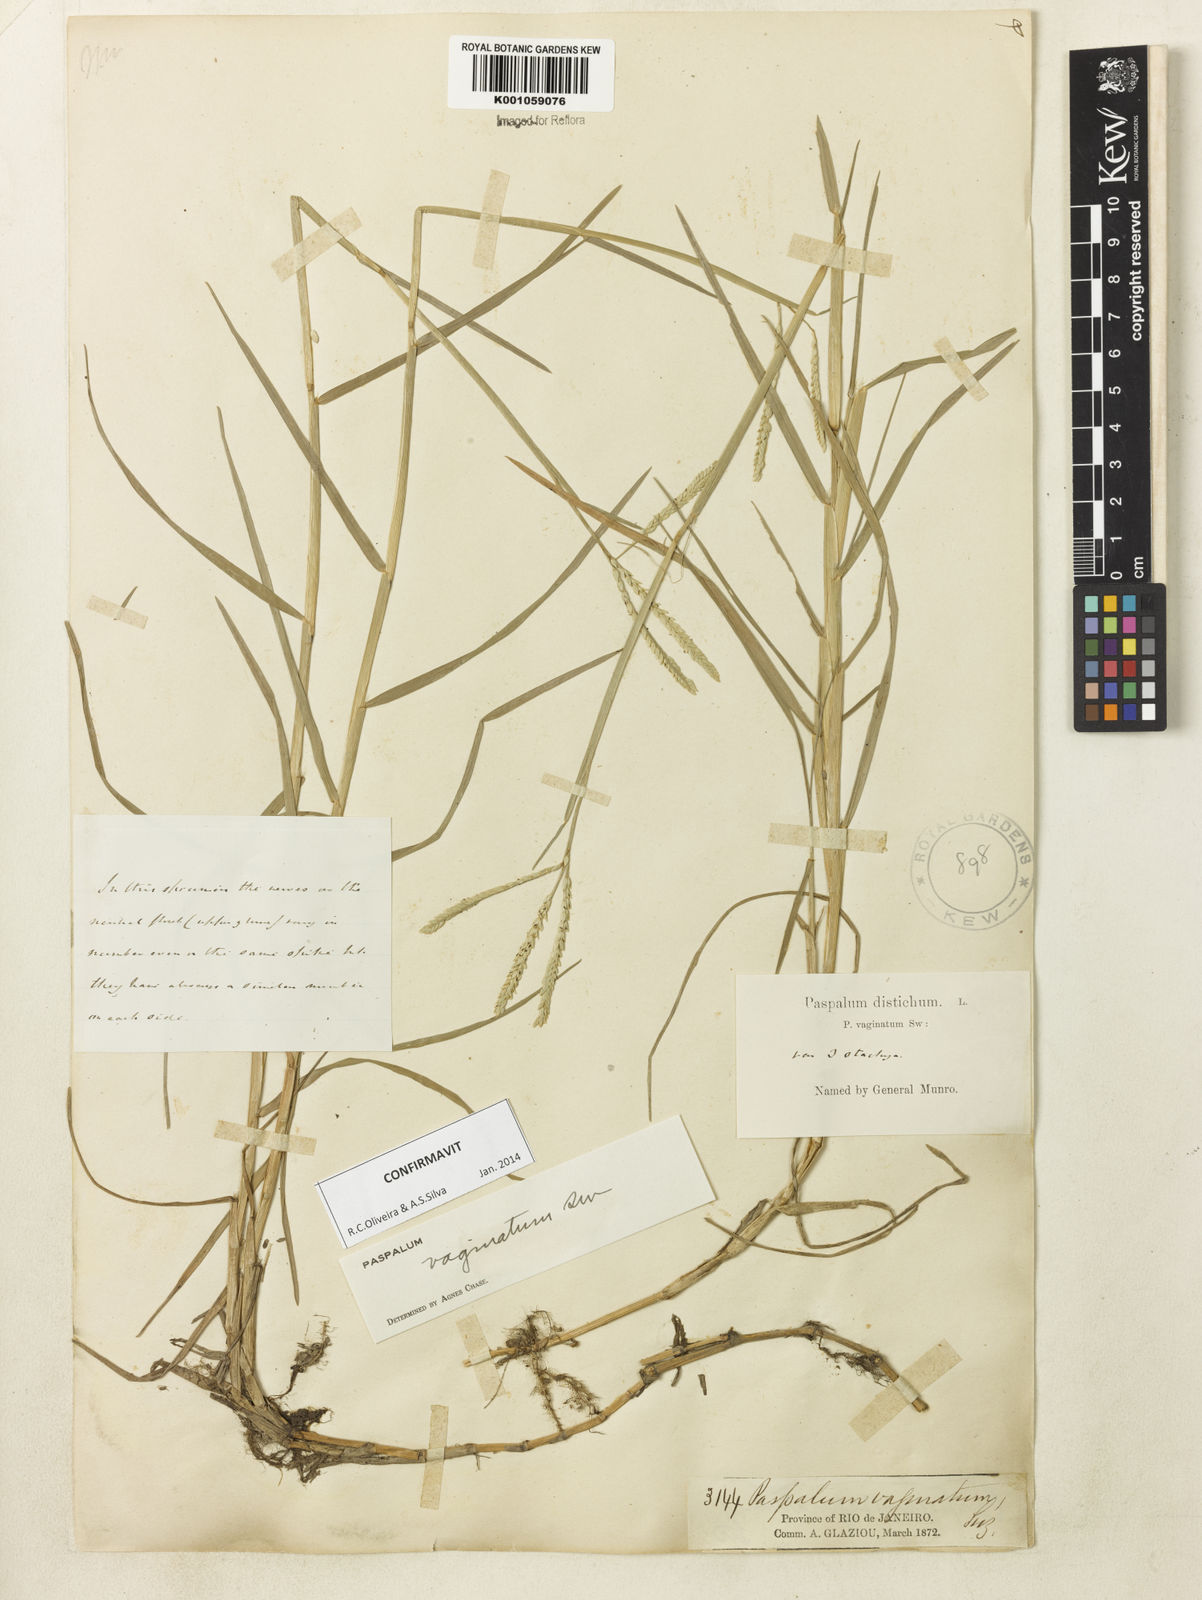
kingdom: Plantae
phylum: Tracheophyta
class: Liliopsida
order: Poales
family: Poaceae
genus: Paspalum
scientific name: Paspalum vaginatum
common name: Seashore paspalum
